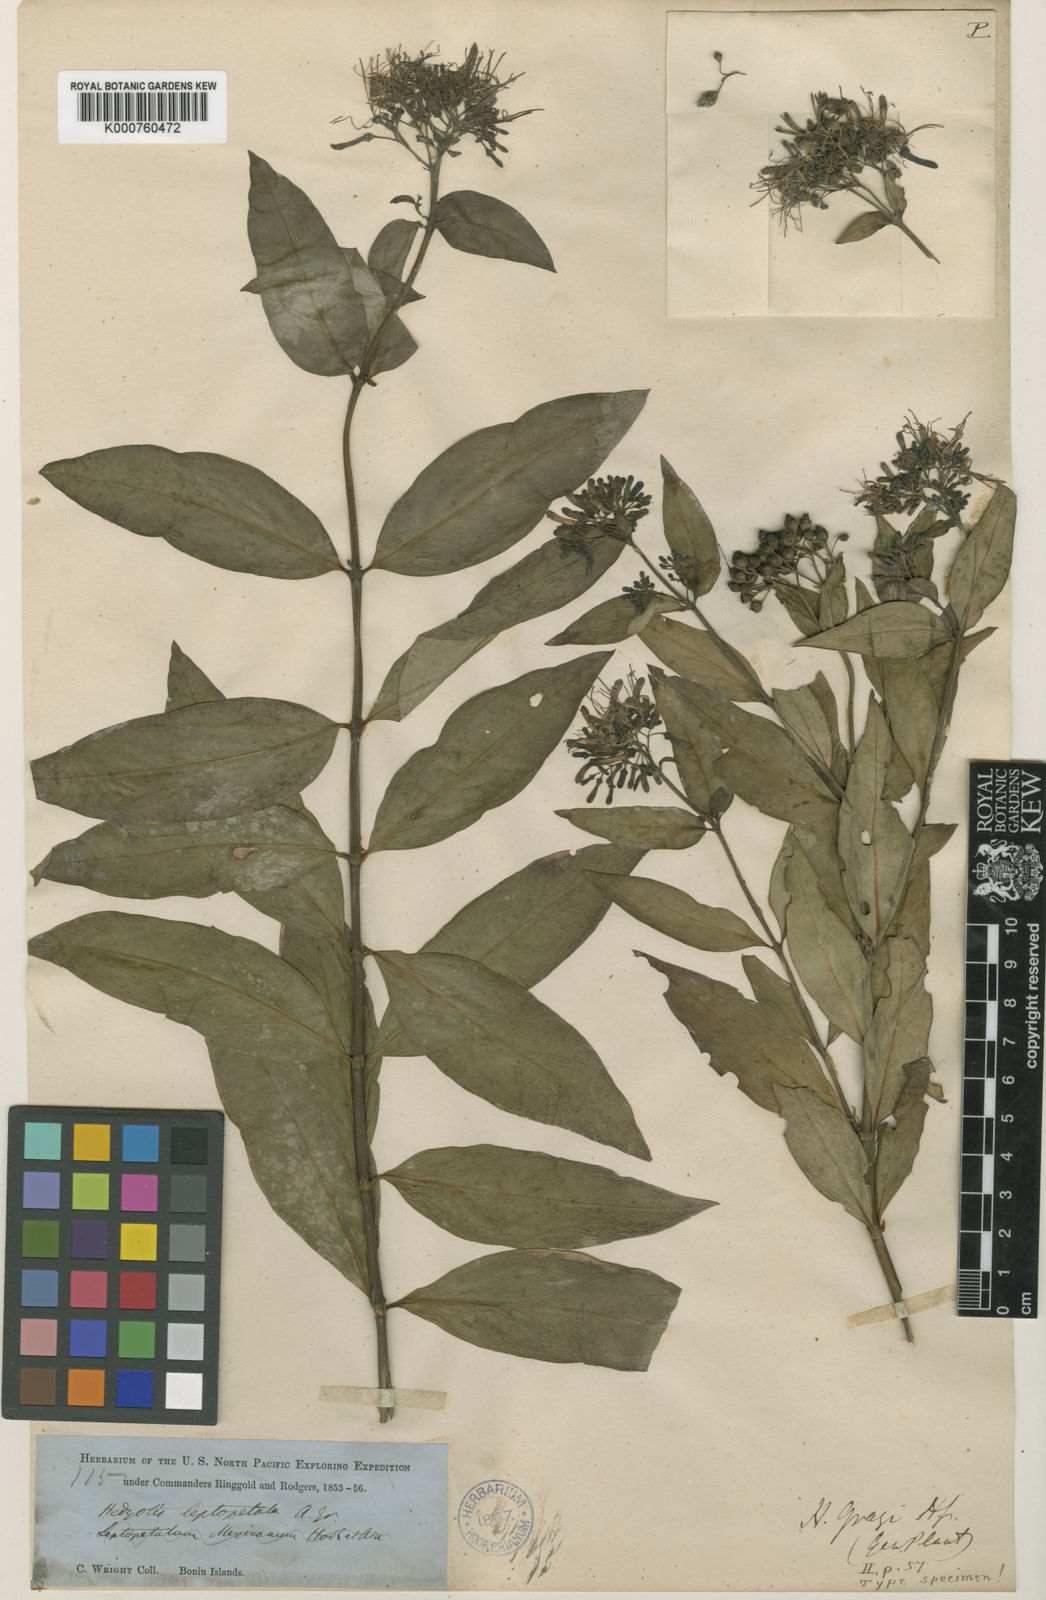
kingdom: Plantae
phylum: Tracheophyta
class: Magnoliopsida
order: Gentianales
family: Rubiaceae
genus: Leptopetalum
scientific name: Leptopetalum
